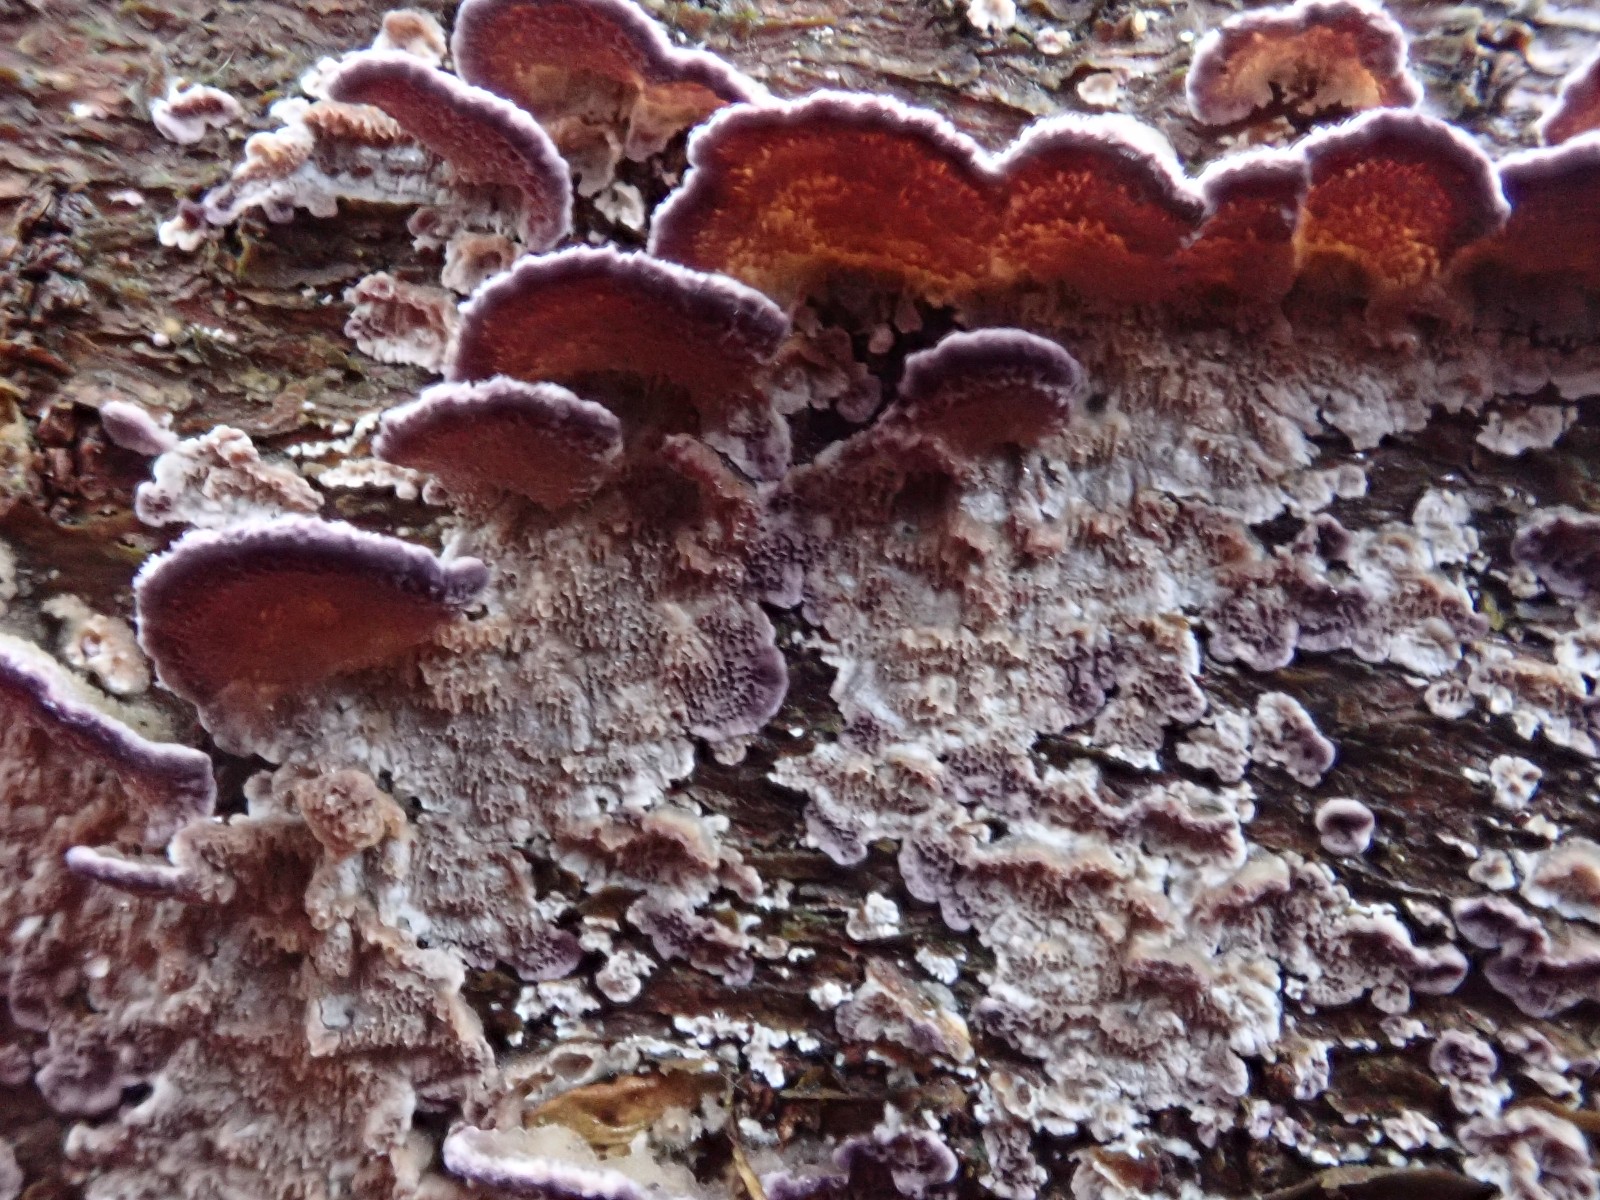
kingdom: Fungi
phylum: Basidiomycota
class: Agaricomycetes
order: Hymenochaetales
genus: Trichaptum
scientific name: Trichaptum abietinum
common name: almindelig violporesvamp
